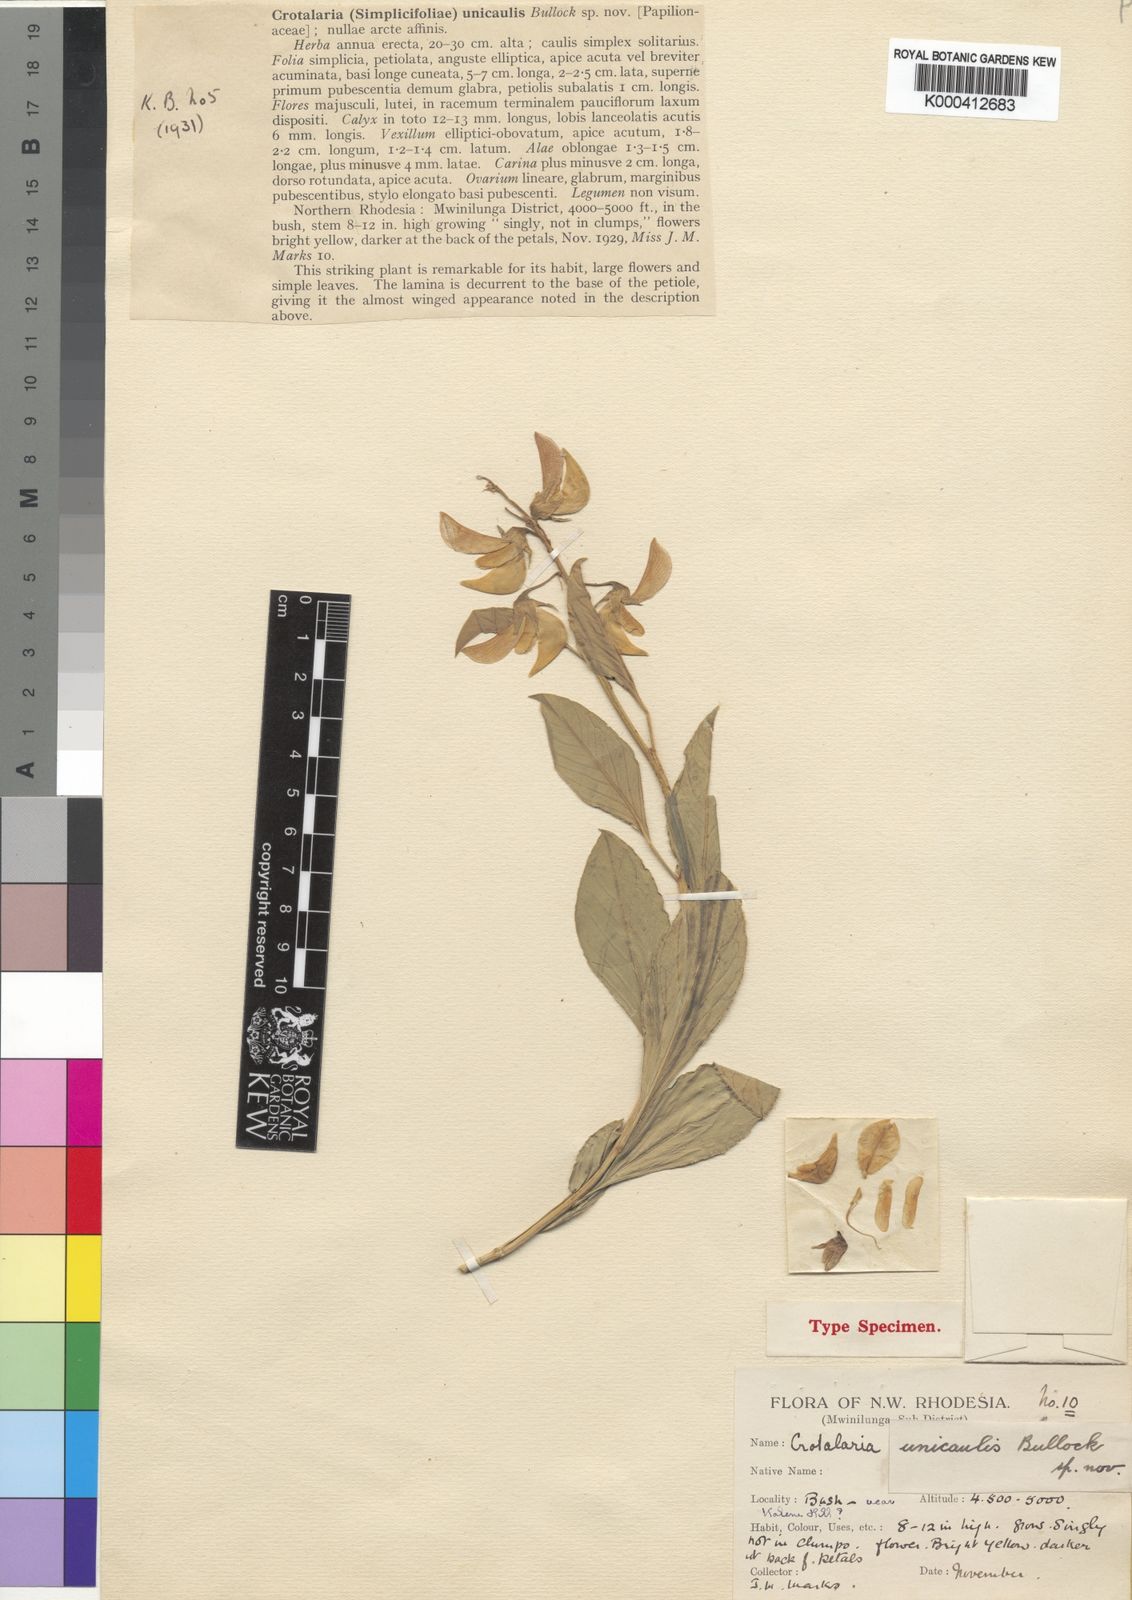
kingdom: Plantae
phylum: Tracheophyta
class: Magnoliopsida
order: Fabales
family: Fabaceae
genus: Crotalaria
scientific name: Crotalaria unicaulis
